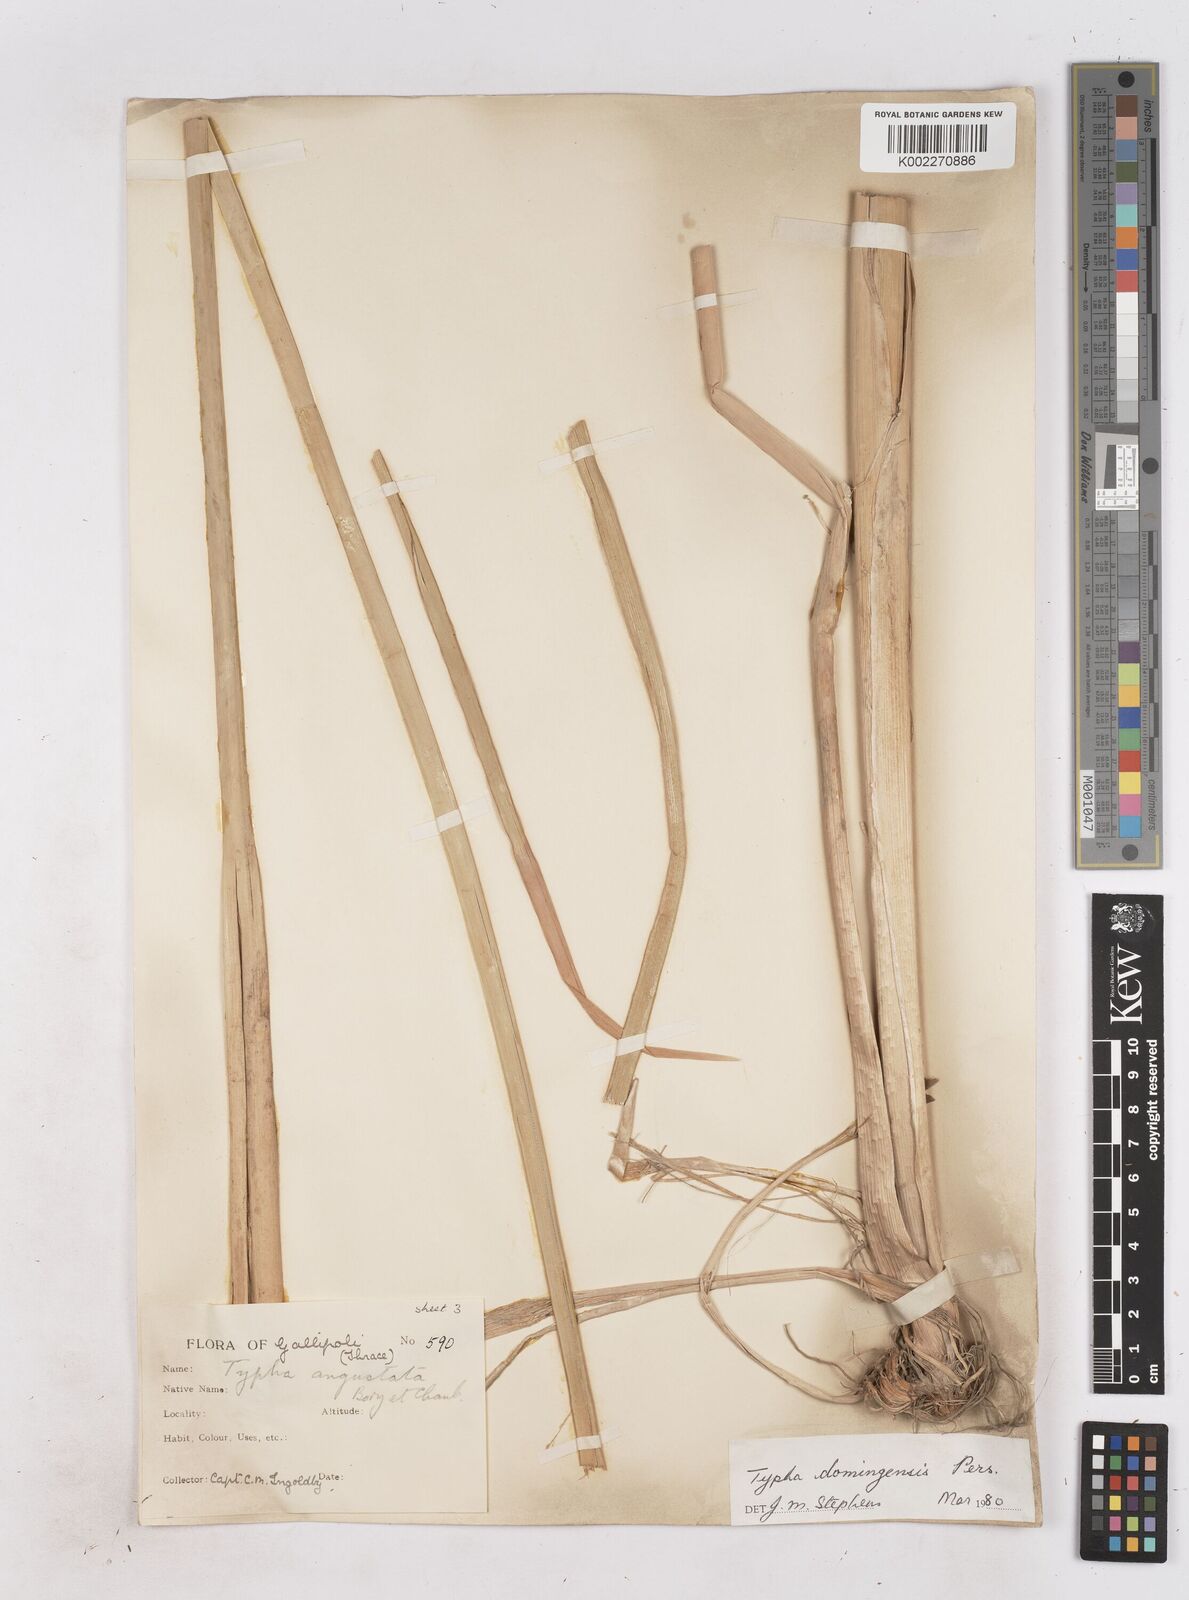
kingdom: Plantae
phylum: Tracheophyta
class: Liliopsida
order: Poales
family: Typhaceae
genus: Typha
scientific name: Typha domingensis
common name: Southern cattail
